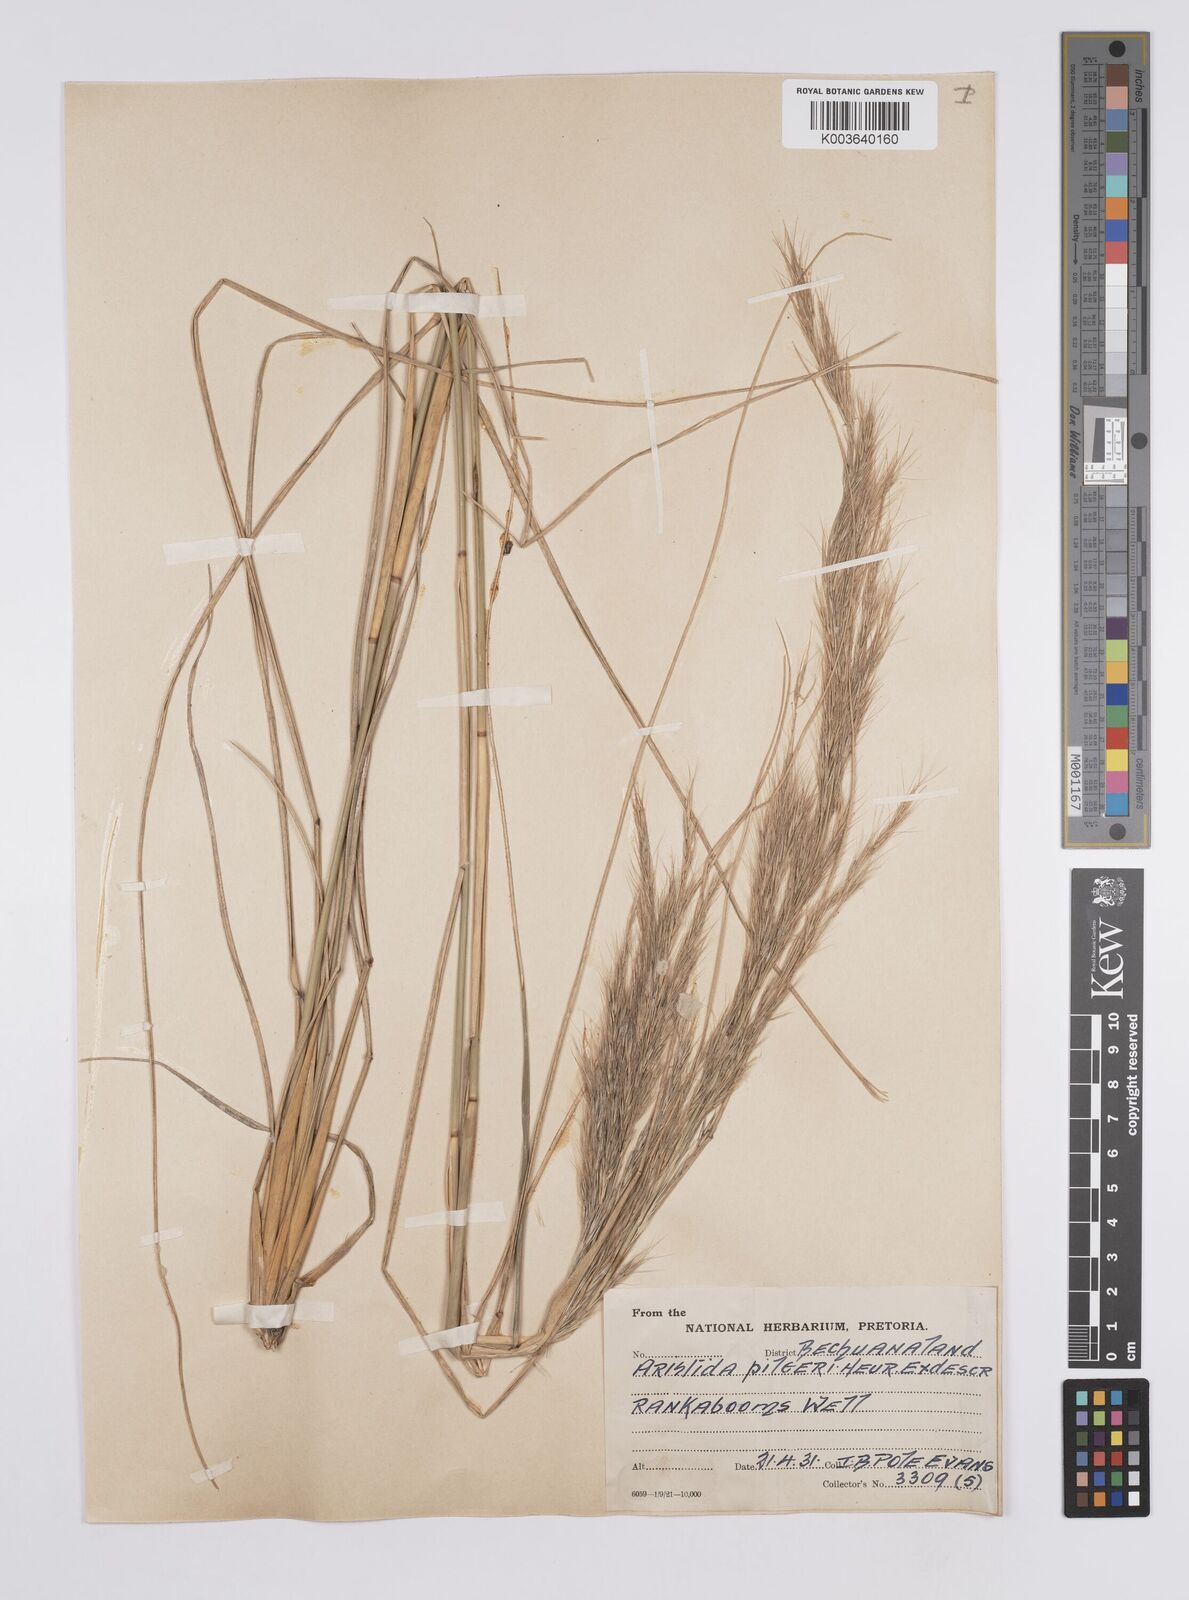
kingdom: Plantae
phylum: Tracheophyta
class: Liliopsida
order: Poales
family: Poaceae
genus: Aristida
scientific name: Aristida pilgeri
